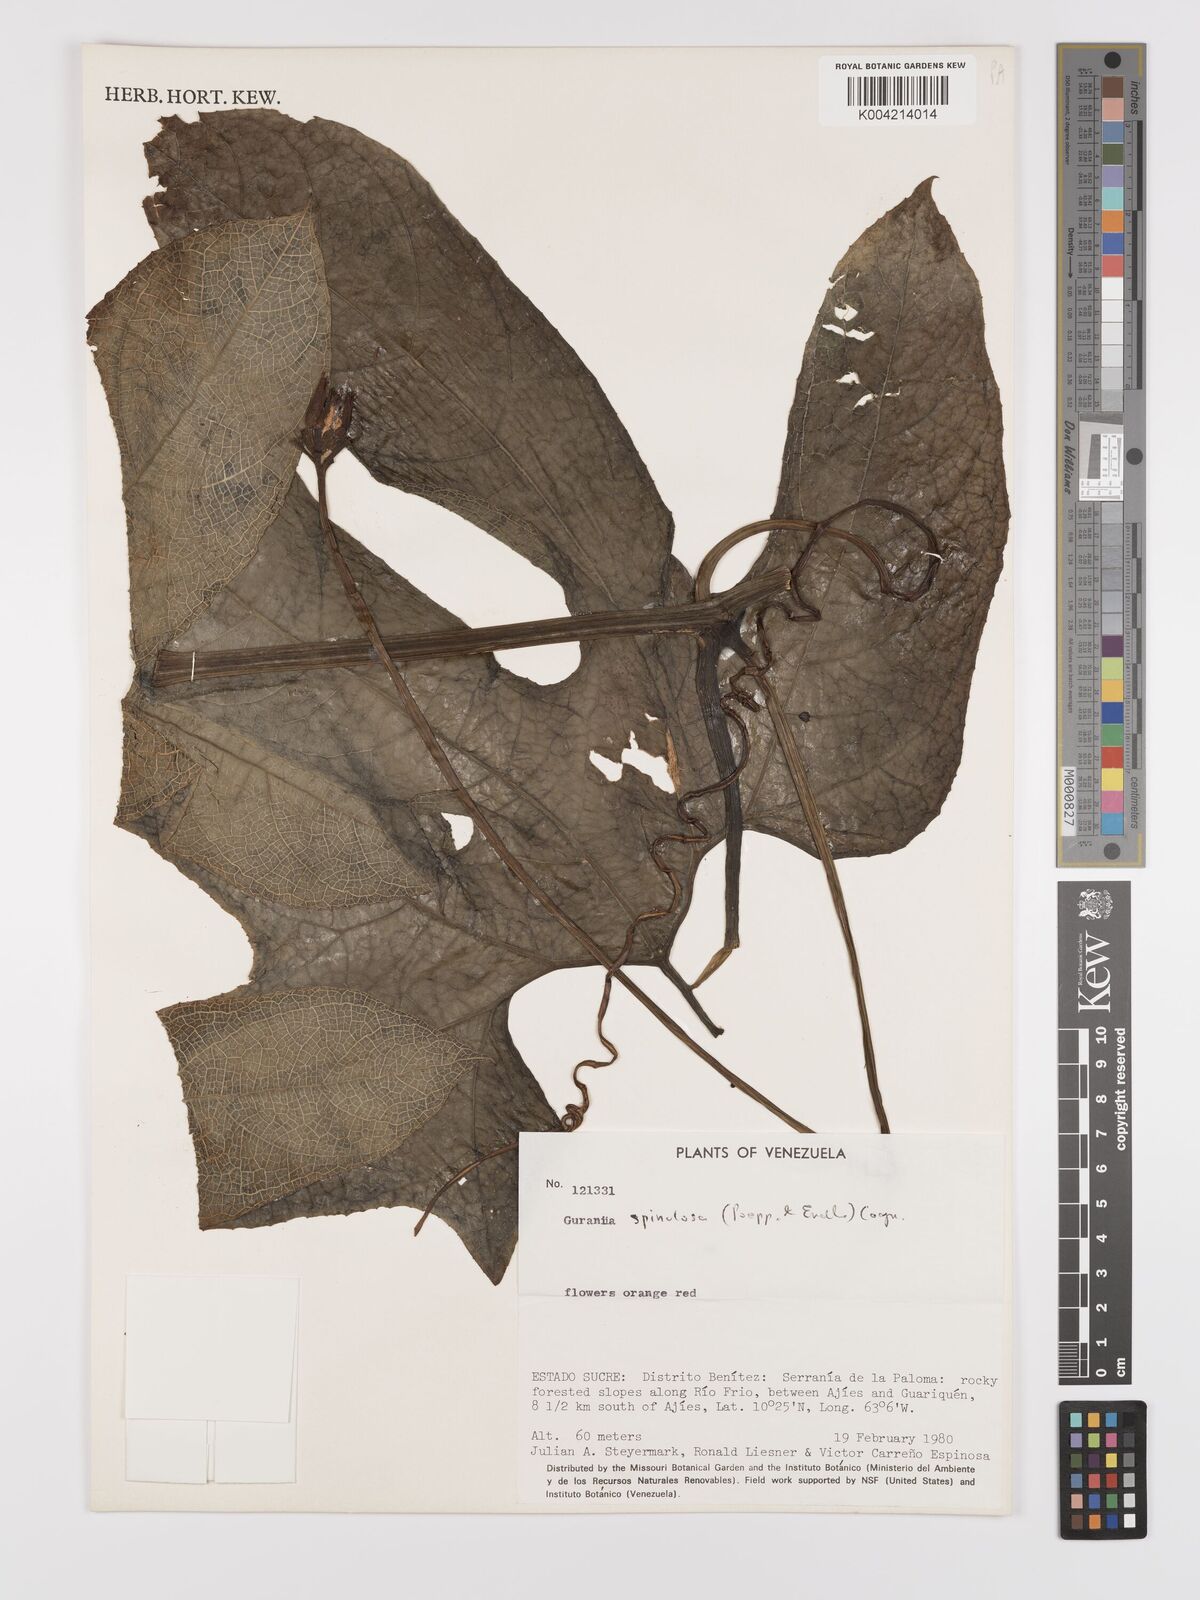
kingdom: Plantae
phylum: Tracheophyta
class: Magnoliopsida
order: Cucurbitales
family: Cucurbitaceae
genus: Gurania
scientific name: Gurania lobata
